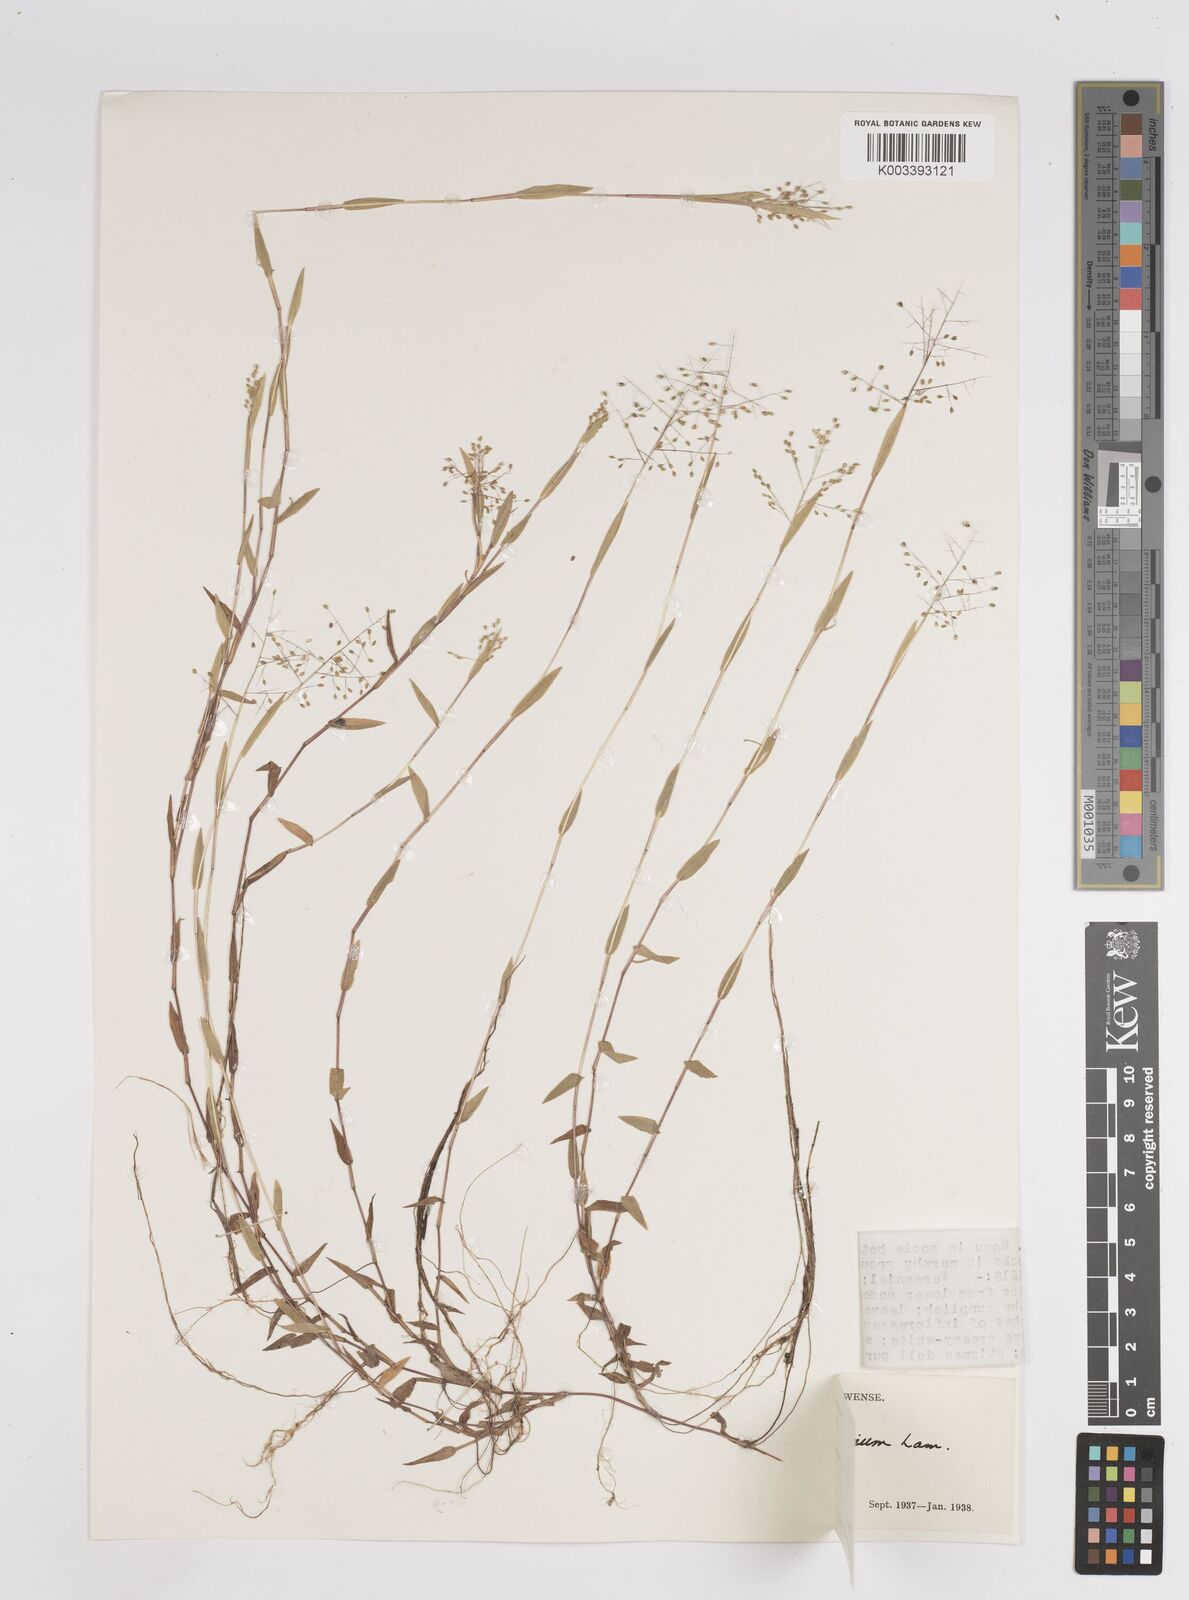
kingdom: Plantae
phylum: Tracheophyta
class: Liliopsida
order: Poales
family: Poaceae
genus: Trichanthecium
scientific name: Trichanthecium parvifolium
